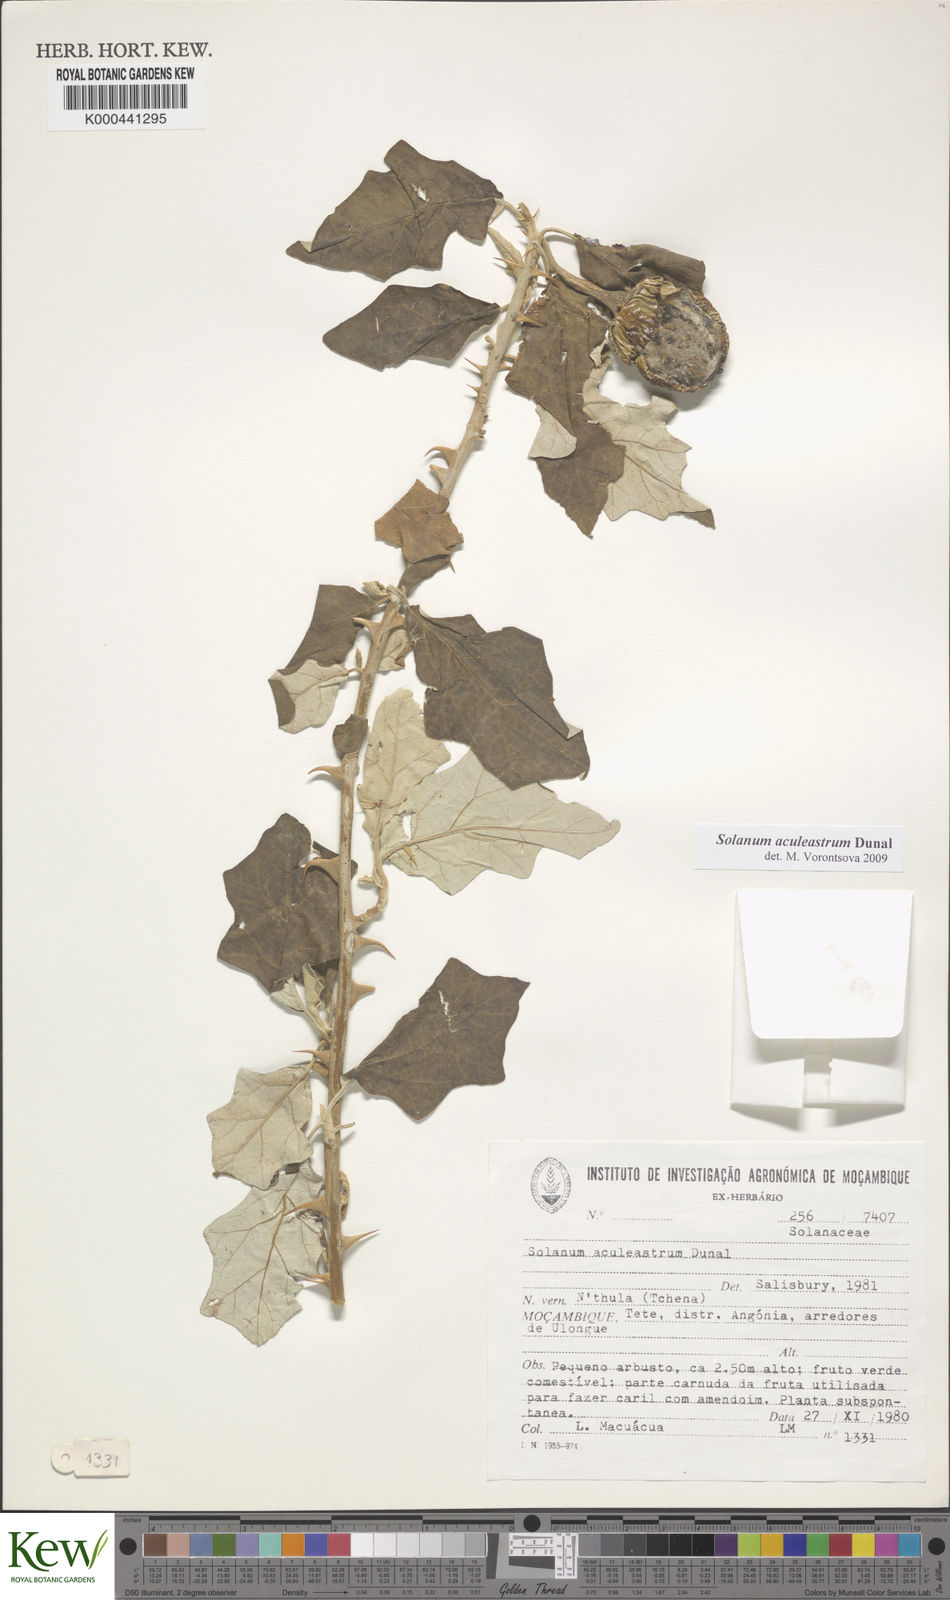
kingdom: Plantae
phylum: Tracheophyta
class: Magnoliopsida
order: Solanales
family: Solanaceae
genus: Solanum
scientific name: Solanum aculeastrum
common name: Goat bitter-apple
